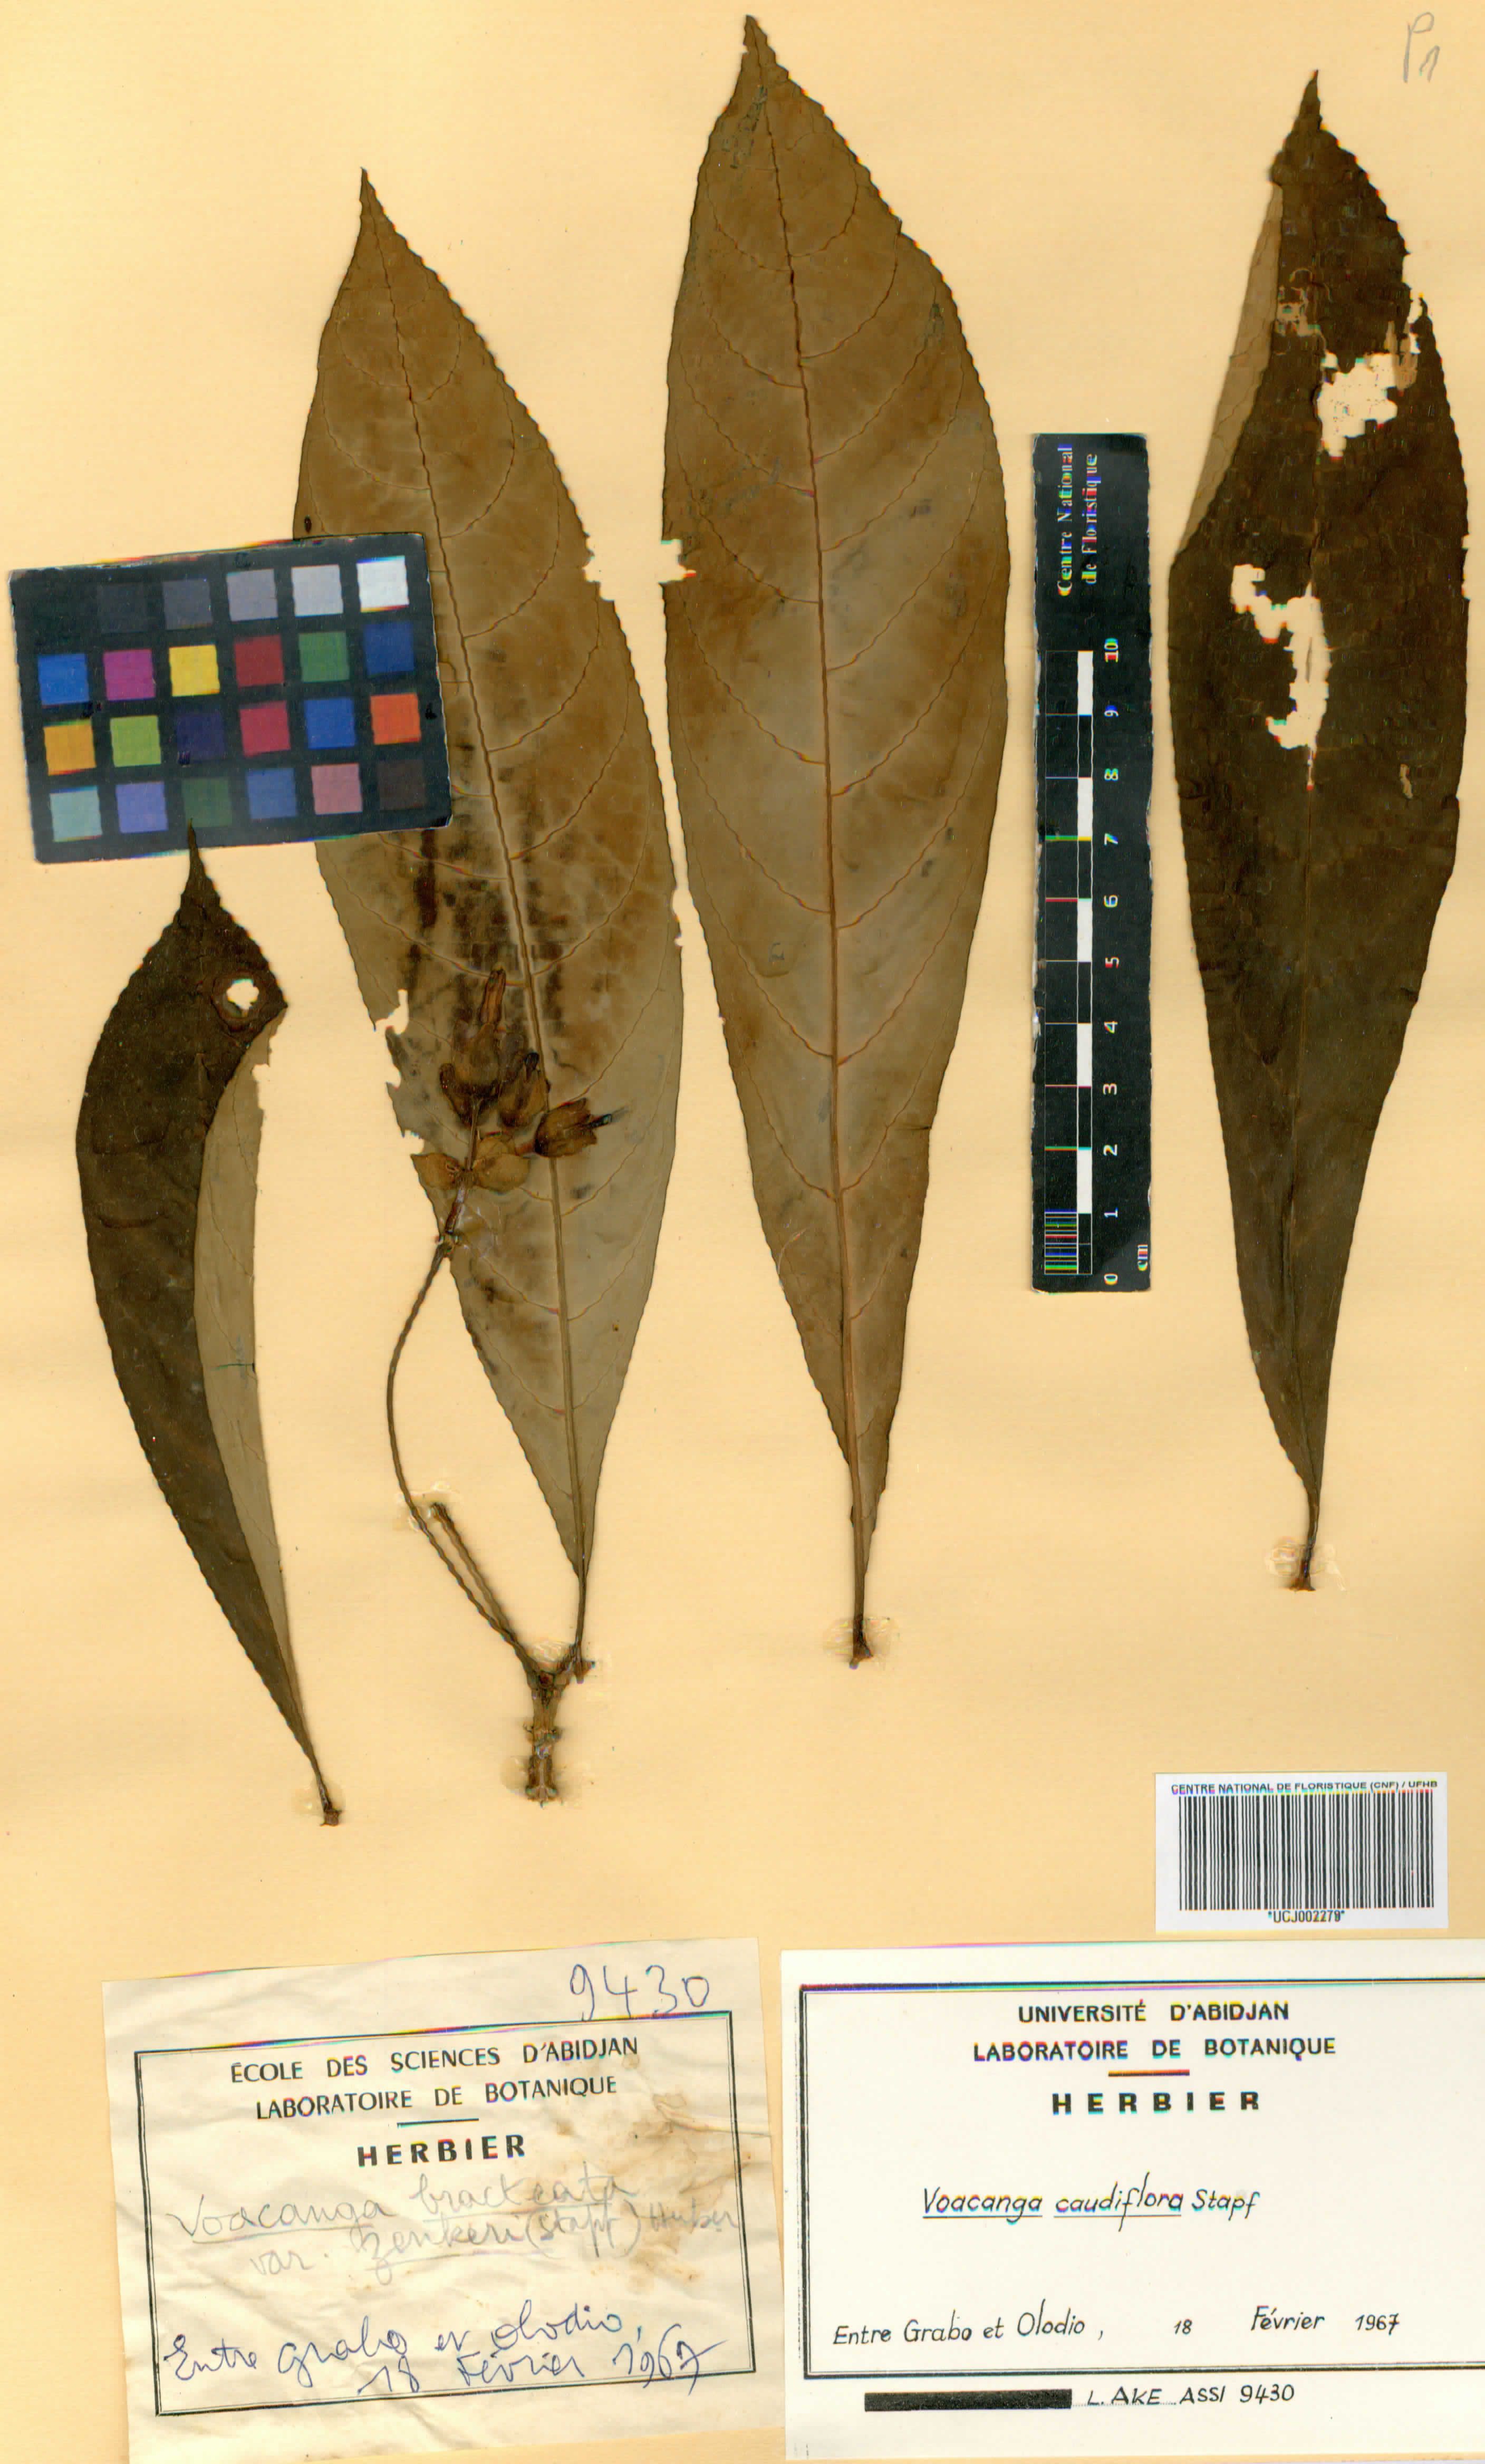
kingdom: Plantae
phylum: Tracheophyta
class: Magnoliopsida
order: Gentianales
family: Apocynaceae
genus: Voacanga
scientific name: Voacanga caudiflora
